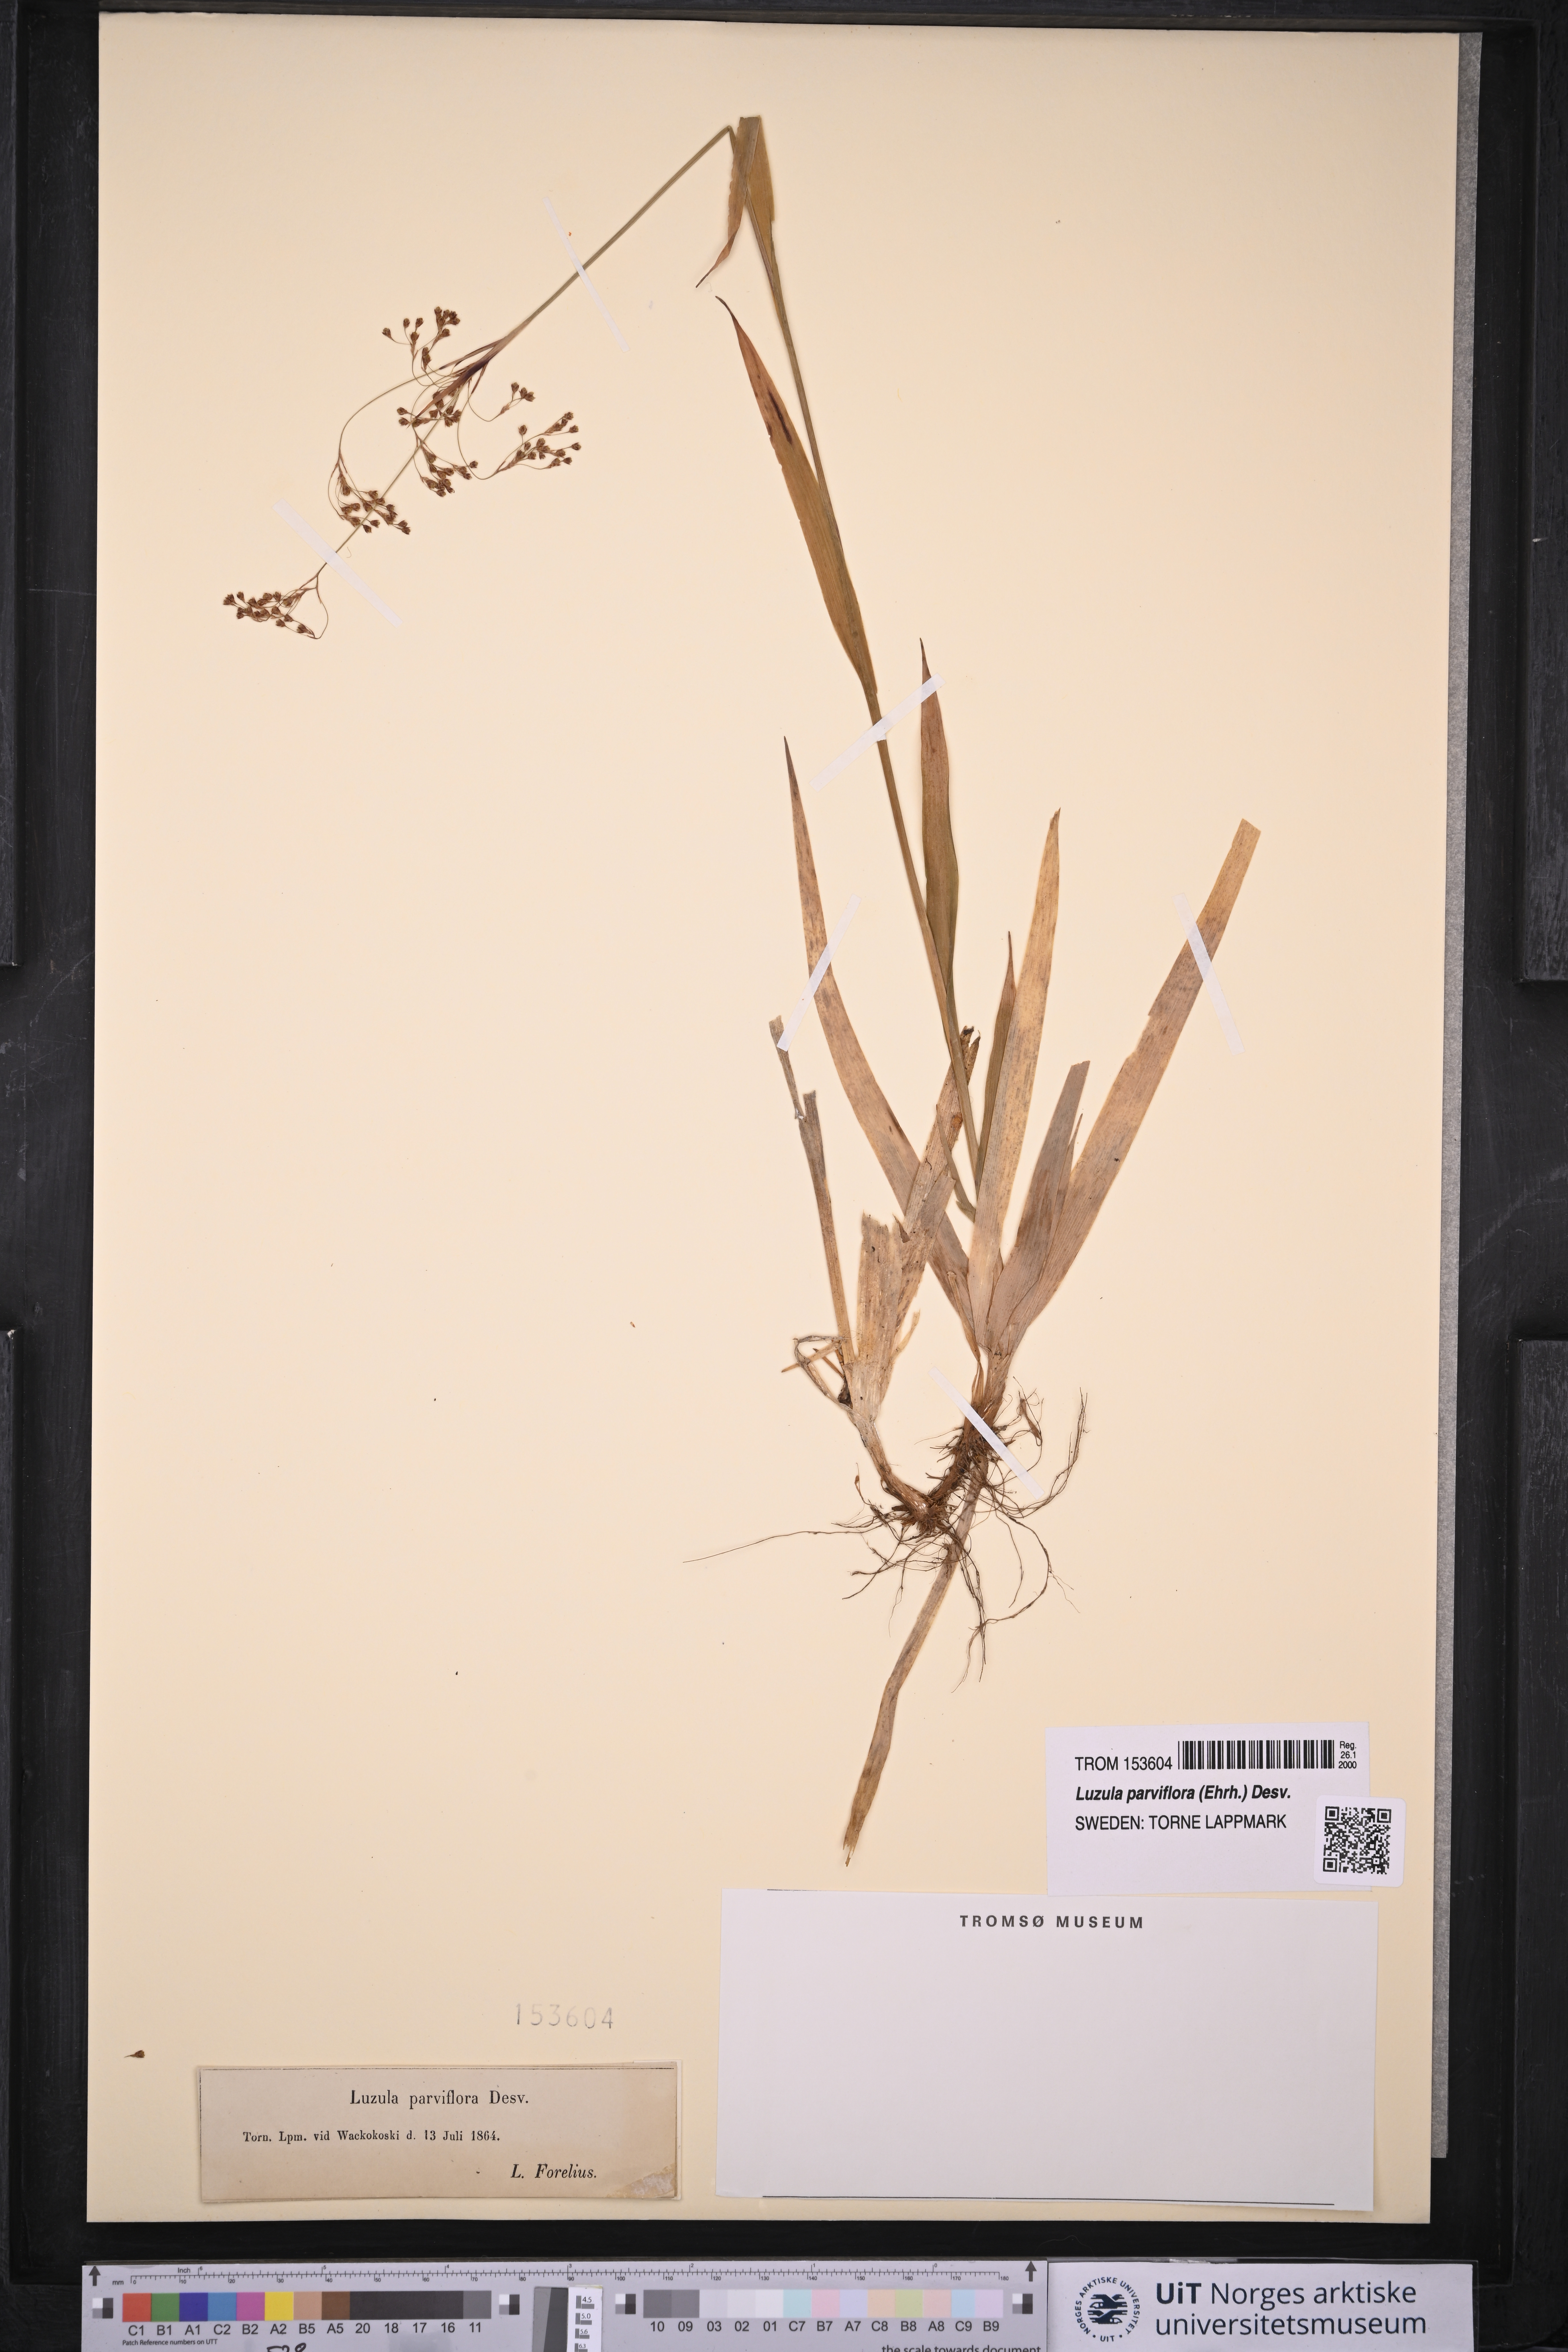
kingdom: Plantae
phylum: Tracheophyta
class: Liliopsida
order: Poales
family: Juncaceae
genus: Luzula
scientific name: Luzula parviflora
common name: Millet woodrush
